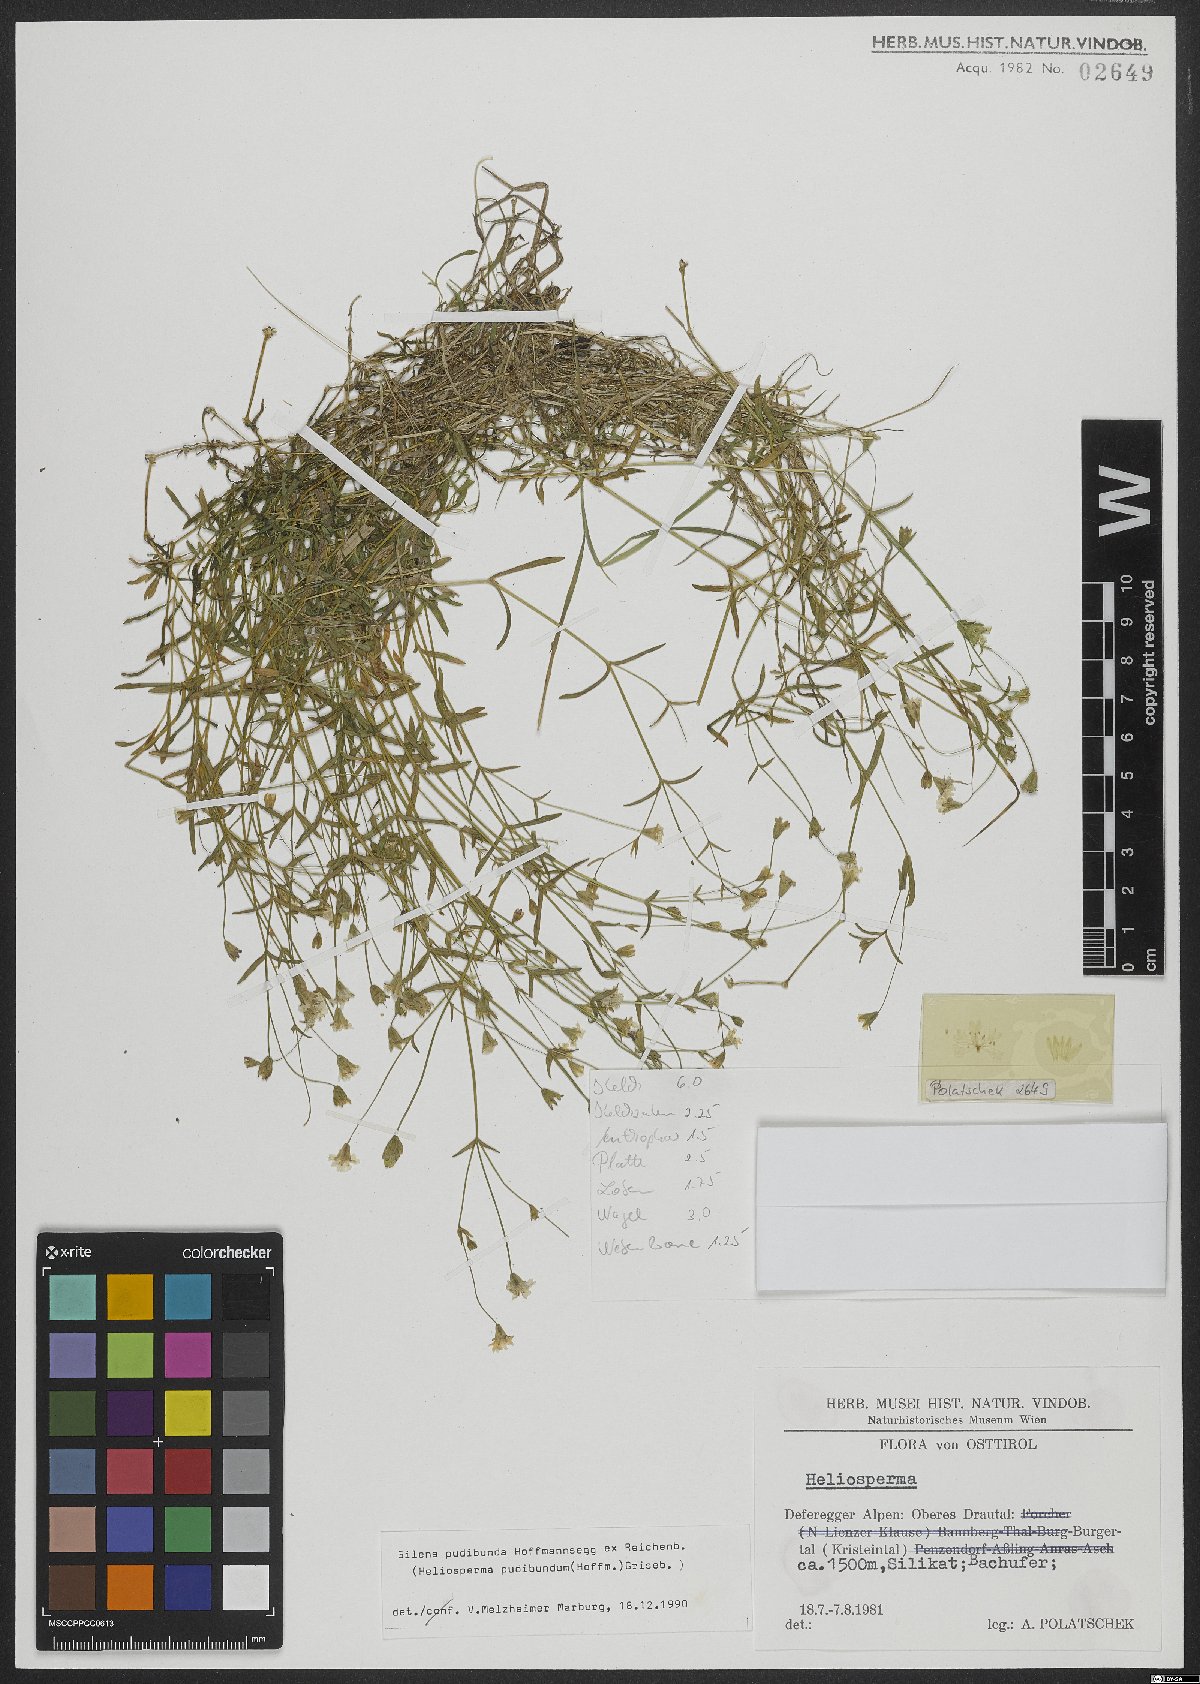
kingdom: Plantae
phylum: Tracheophyta
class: Magnoliopsida
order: Caryophyllales
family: Caryophyllaceae
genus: Heliosperma
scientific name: Heliosperma pudibundum
